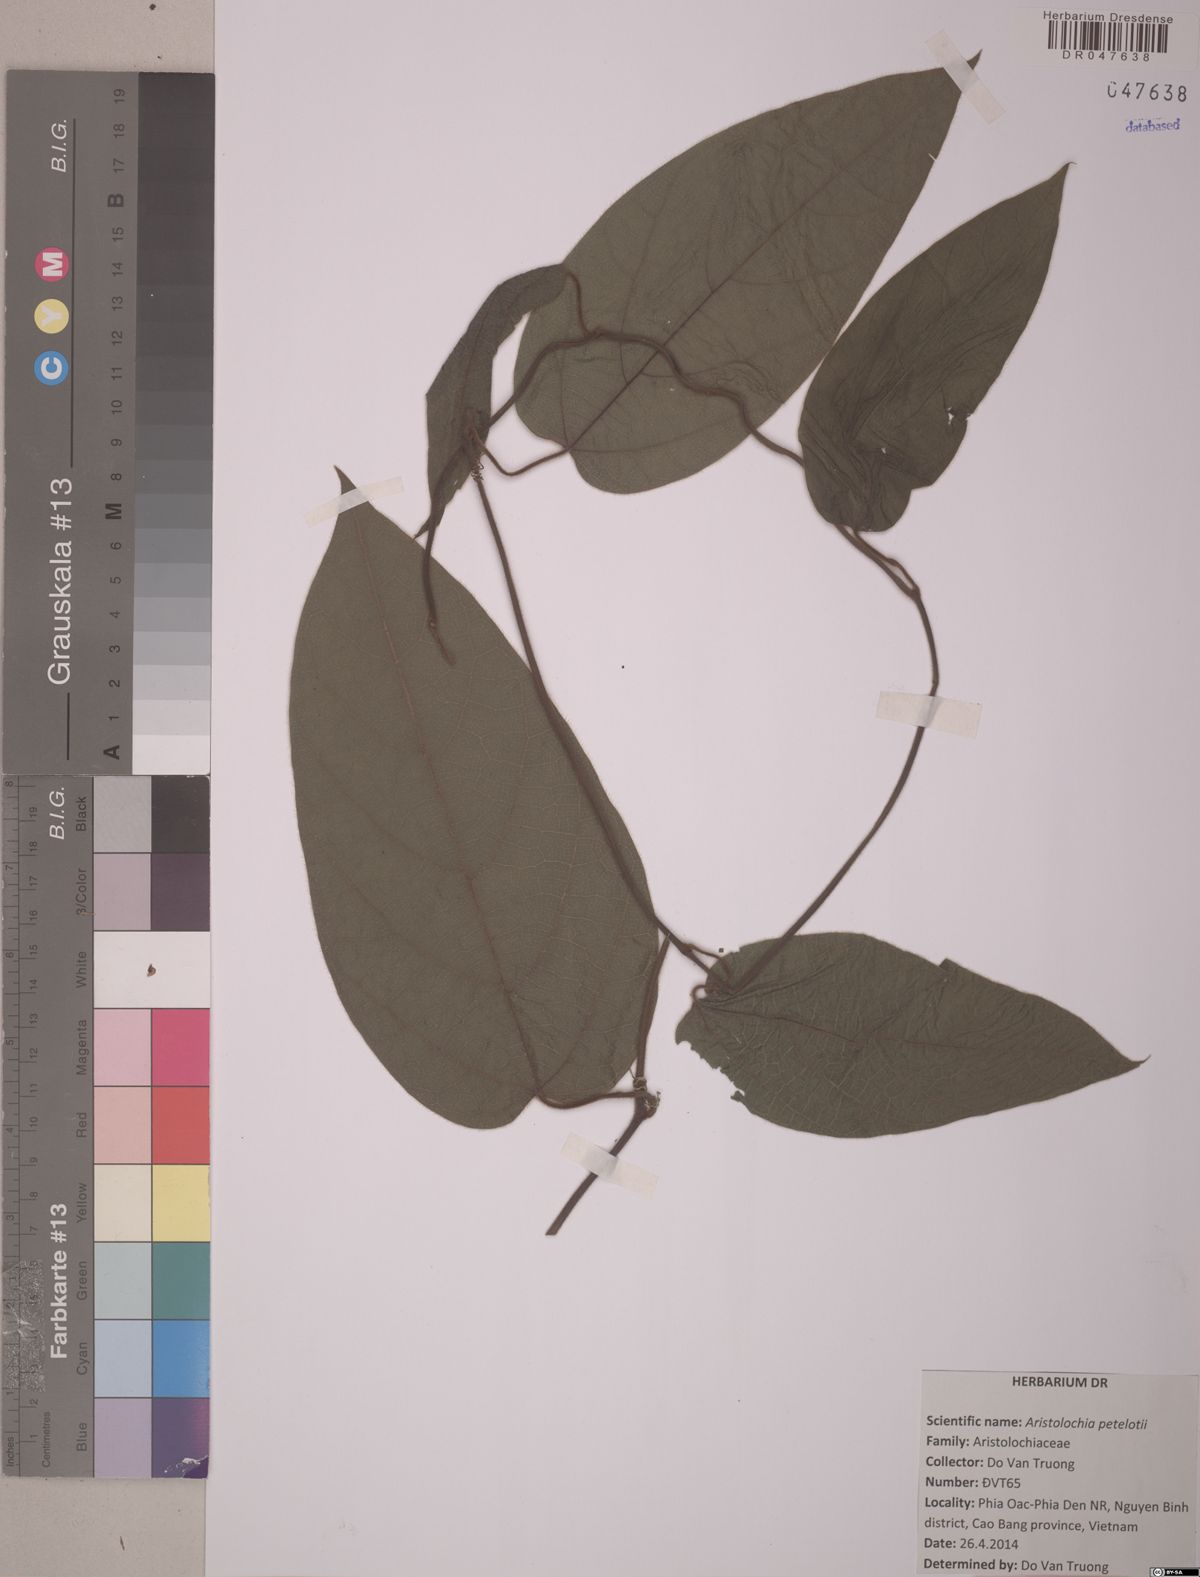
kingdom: Plantae
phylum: Tracheophyta
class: Magnoliopsida
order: Piperales
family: Aristolochiaceae
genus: Isotrema
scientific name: Isotrema petelotii
